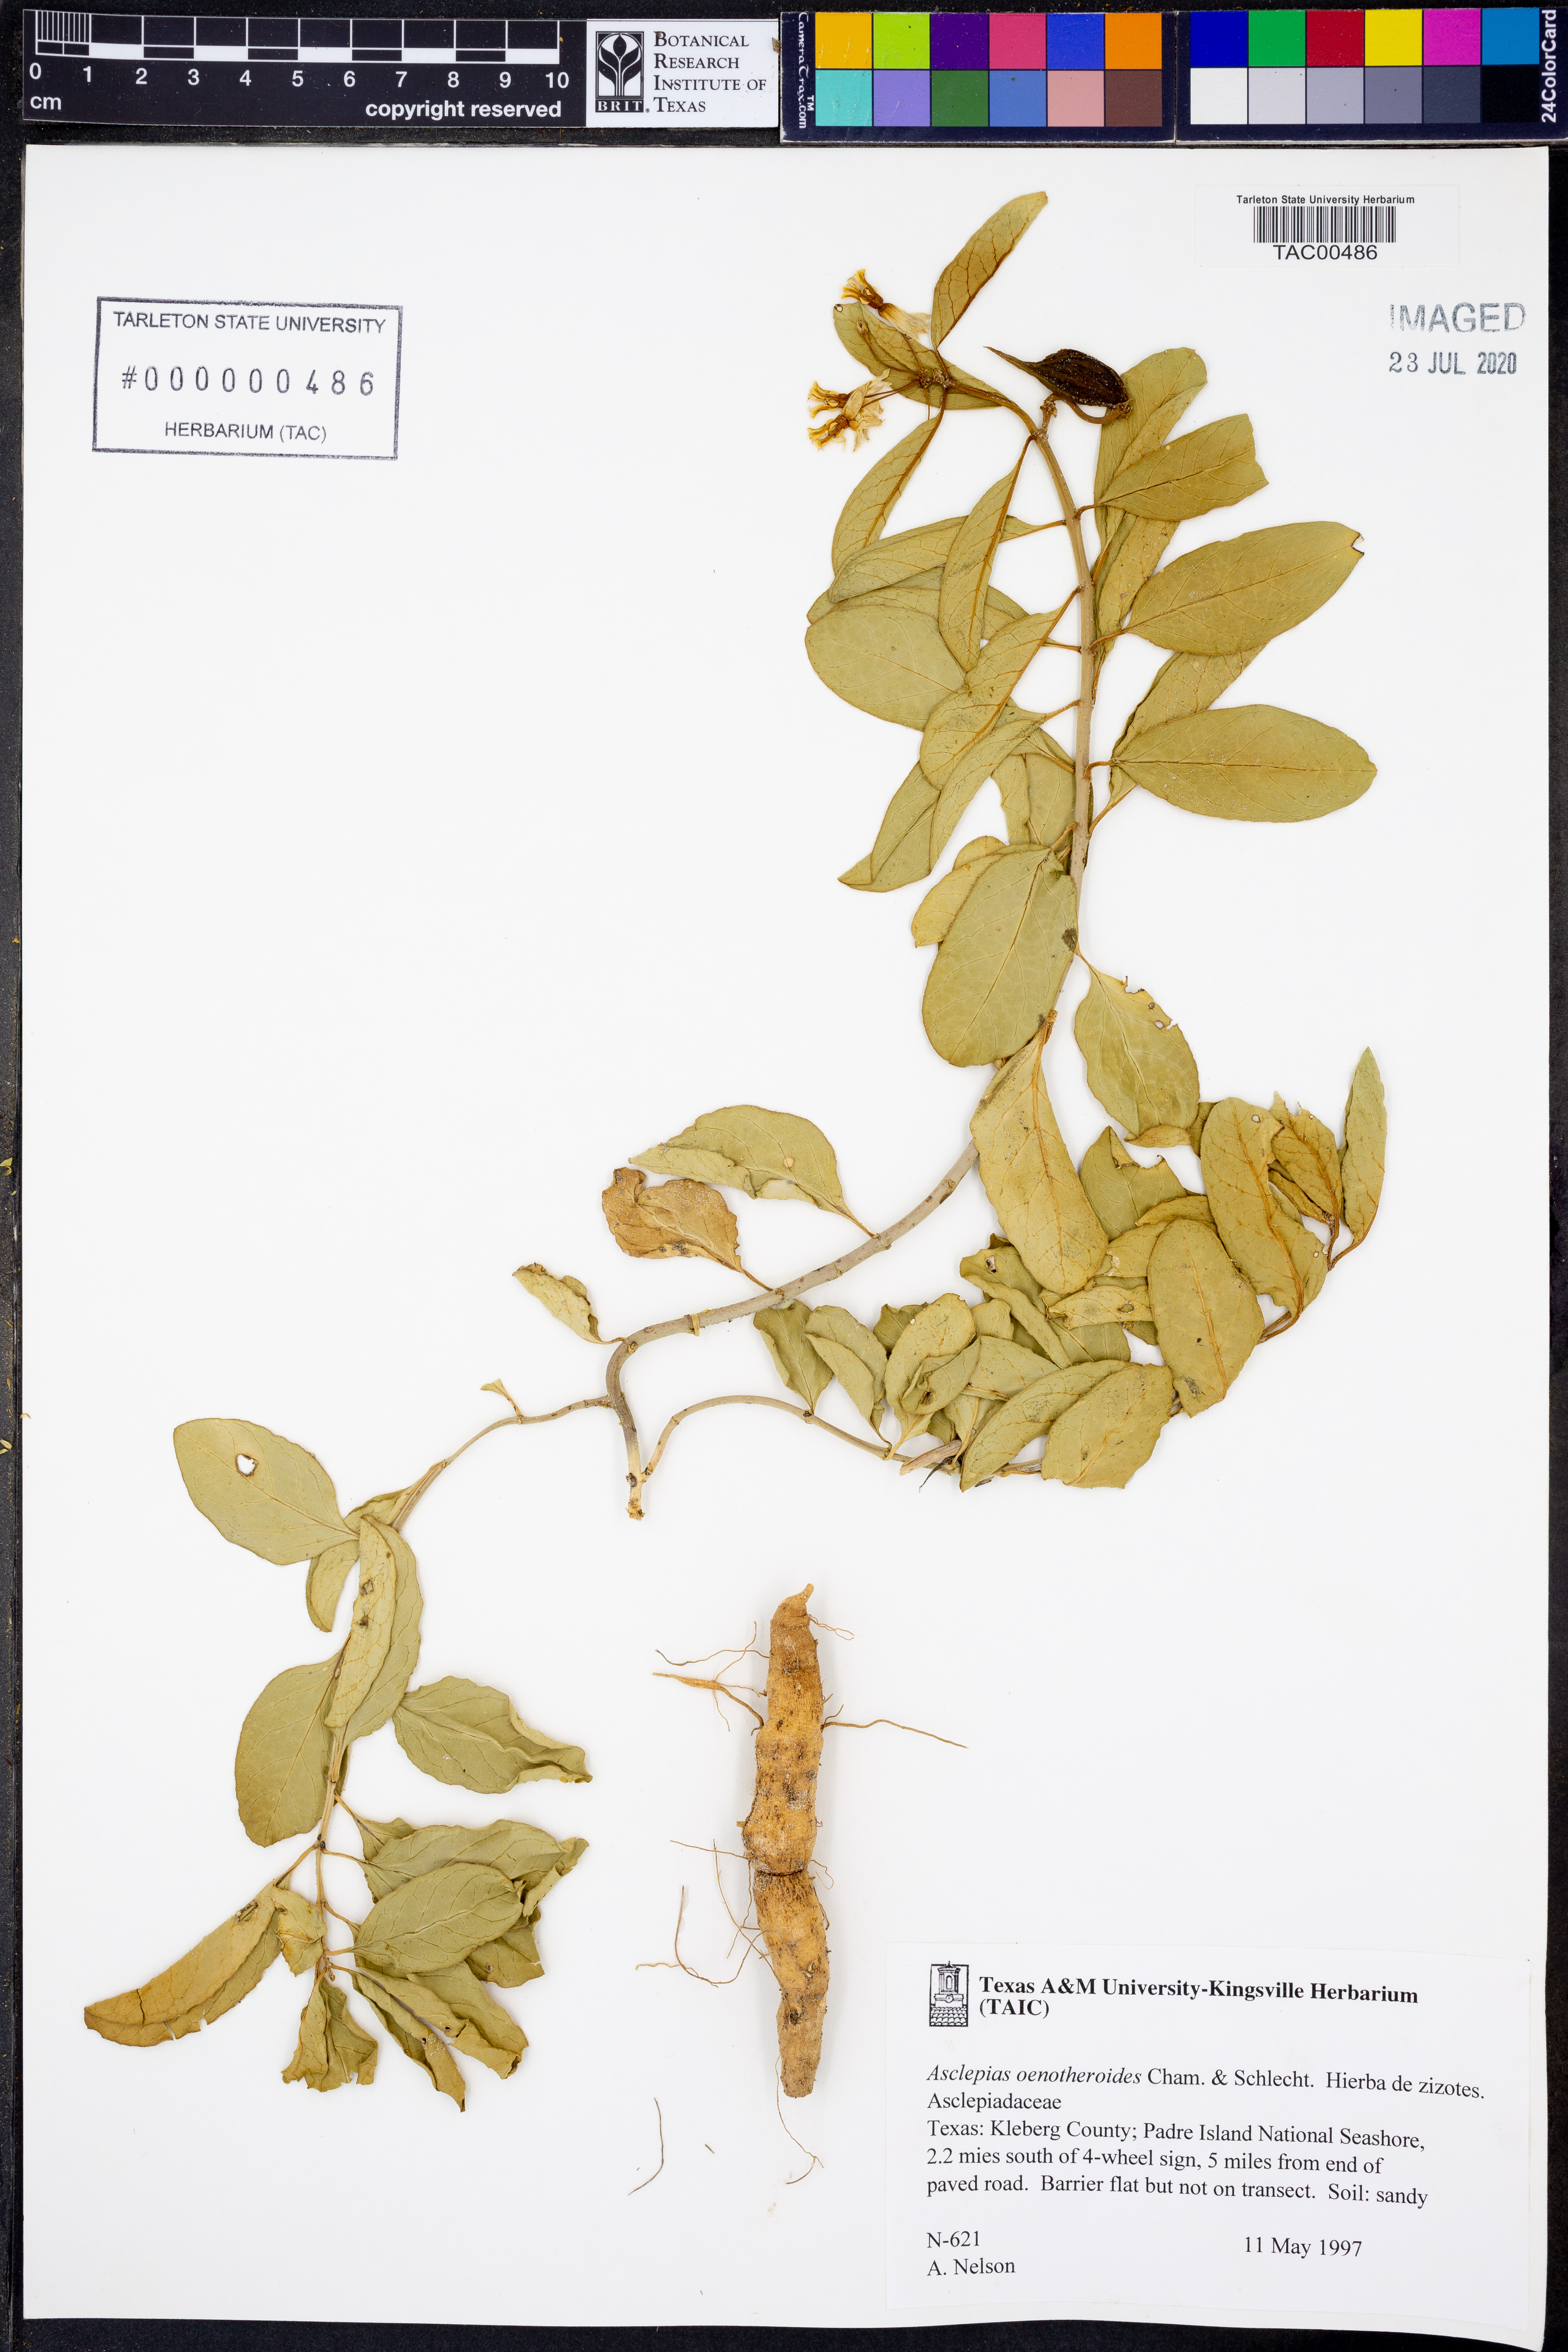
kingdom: Plantae
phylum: Tracheophyta
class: Magnoliopsida
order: Gentianales
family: Apocynaceae
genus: Asclepias
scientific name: Asclepias oenotheroides
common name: Zizotes milkweed
